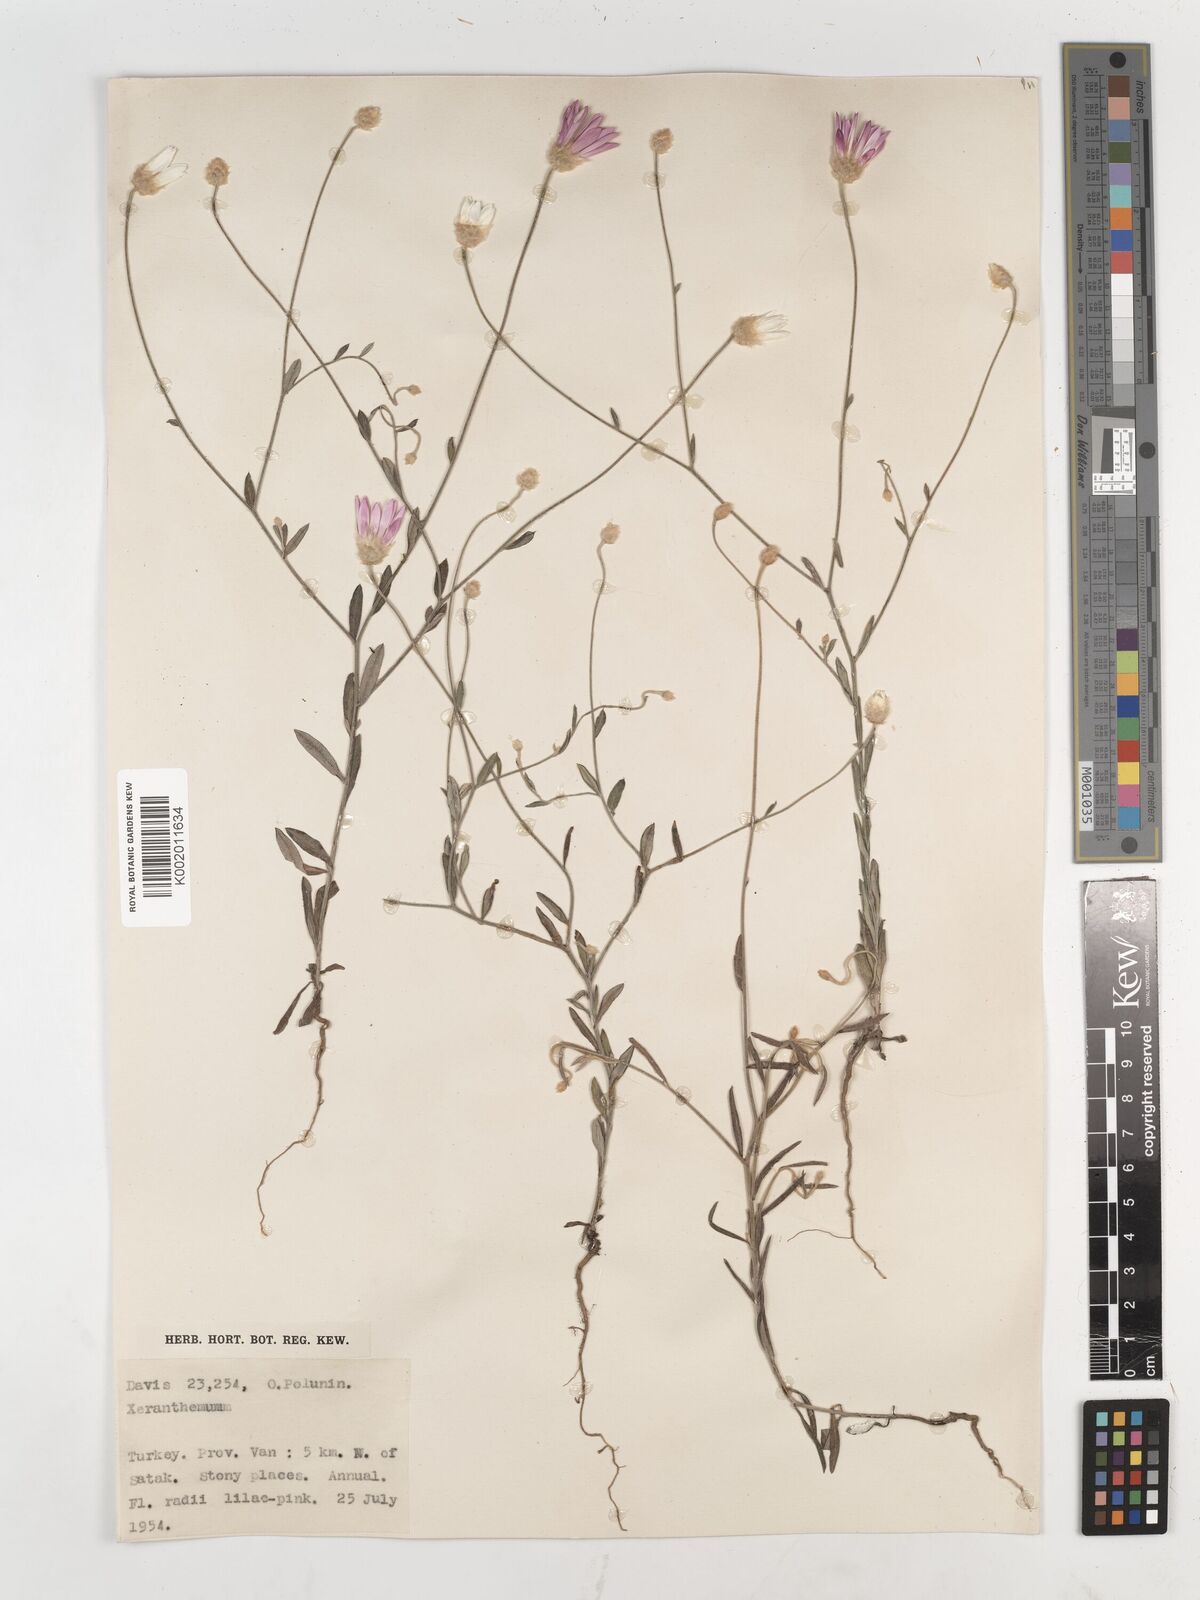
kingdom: Plantae
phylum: Tracheophyta
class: Magnoliopsida
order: Asterales
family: Asteraceae
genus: Xeranthemum
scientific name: Xeranthemum annuum
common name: Immortelle
